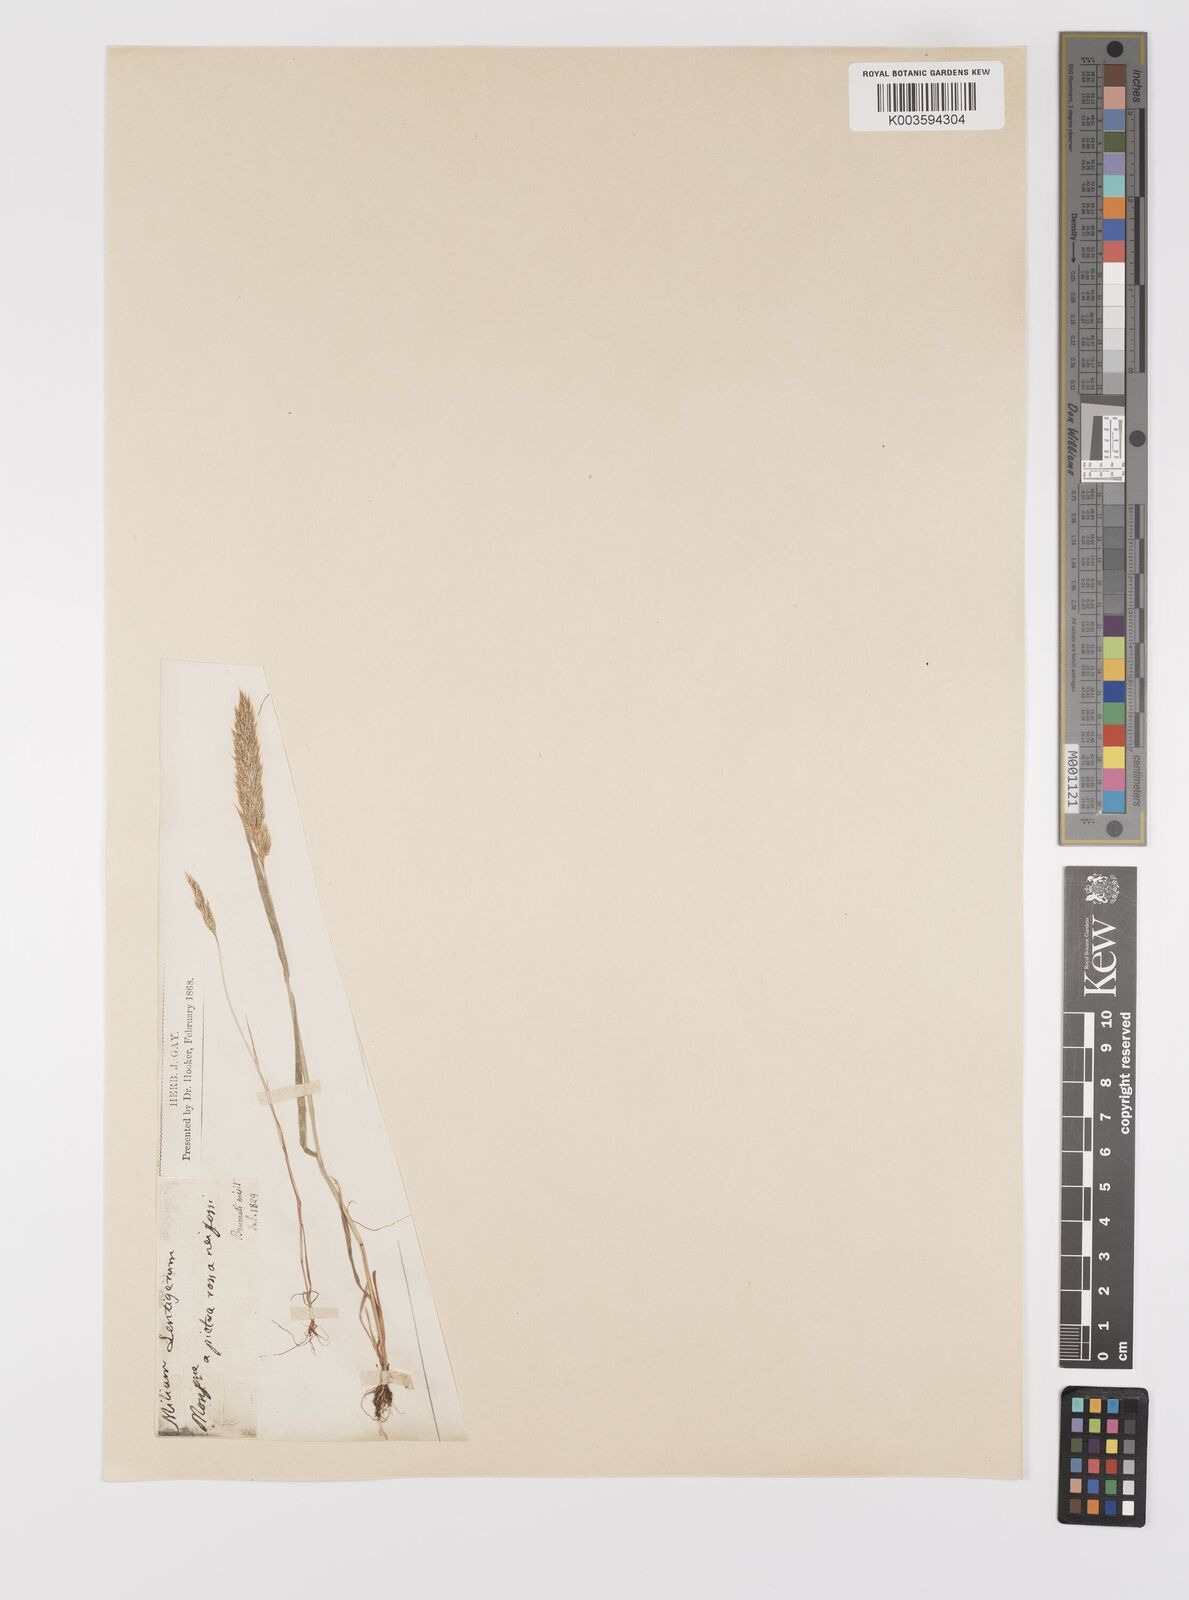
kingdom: Plantae
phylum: Tracheophyta
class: Liliopsida
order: Poales
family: Poaceae
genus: Gastridium
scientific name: Gastridium ventricosum
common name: Nit-grass
